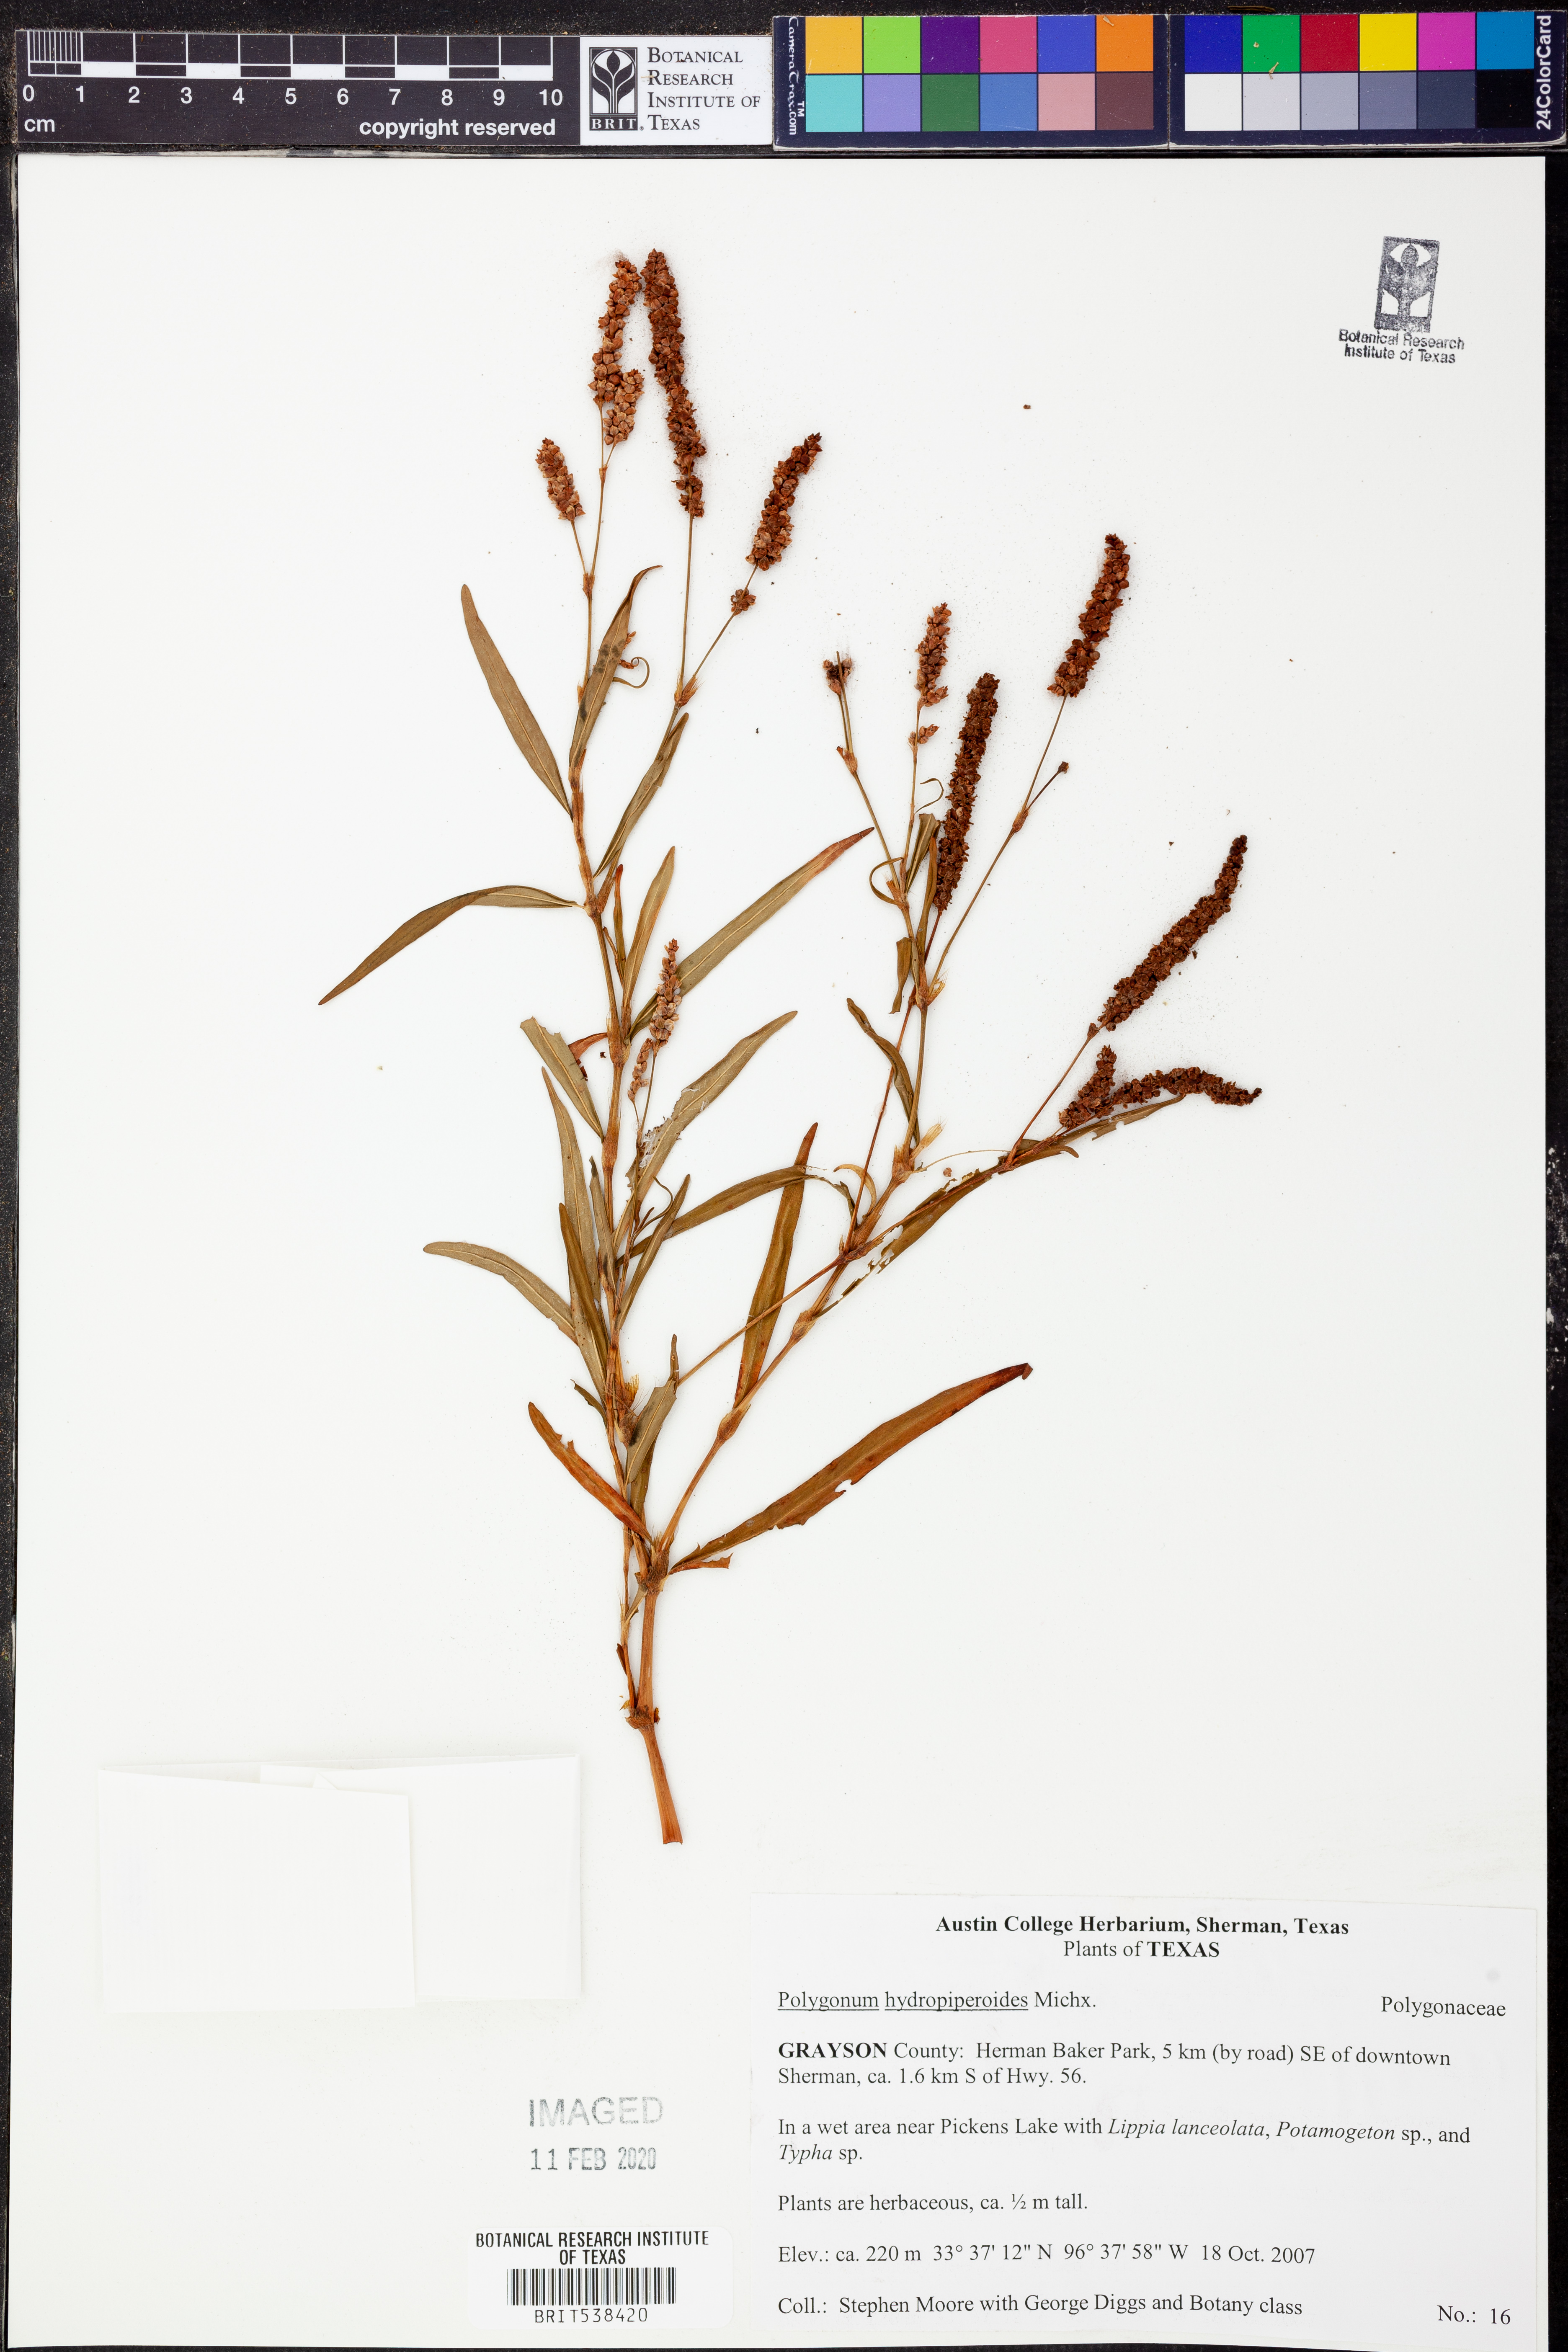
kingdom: Plantae
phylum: Tracheophyta
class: Magnoliopsida
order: Caryophyllales
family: Polygonaceae
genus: Persicaria
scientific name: Persicaria hydropiperoides
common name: Swamp smartweed
